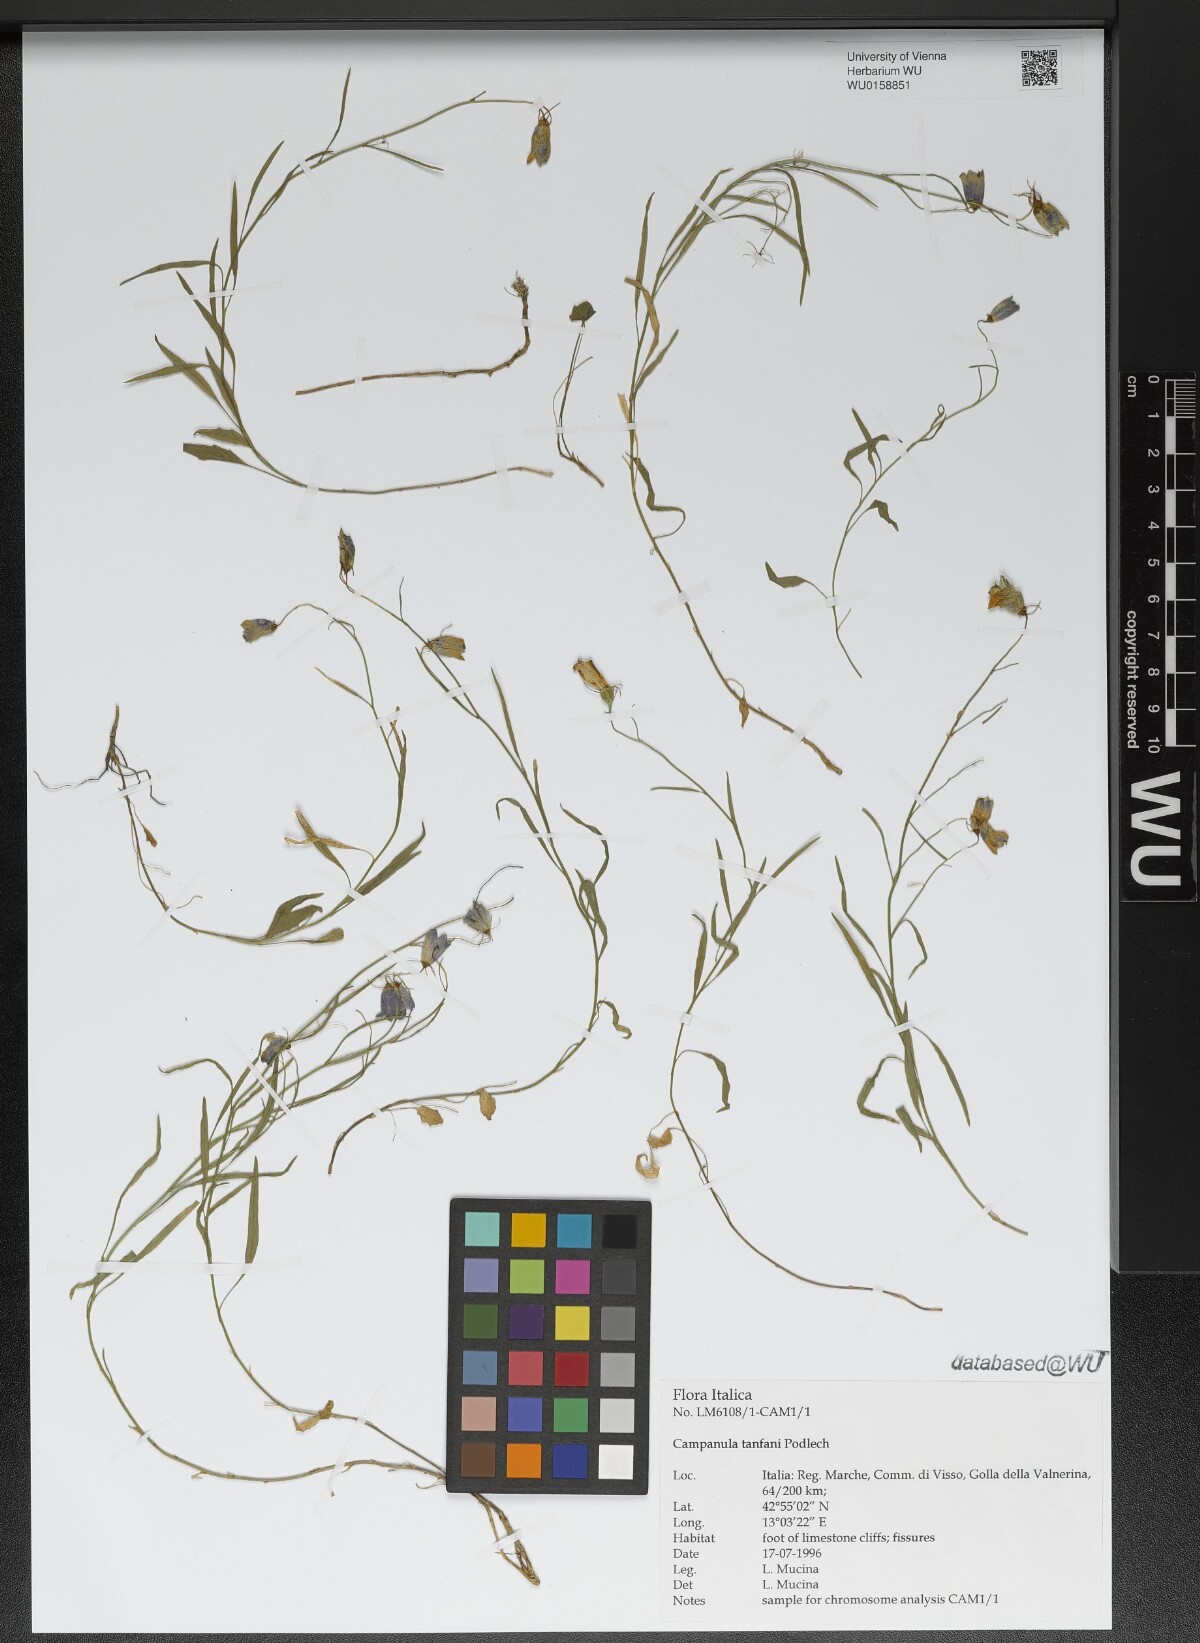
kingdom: Plantae
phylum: Tracheophyta
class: Magnoliopsida
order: Asterales
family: Campanulaceae
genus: Campanula
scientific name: Campanula tanfanii
